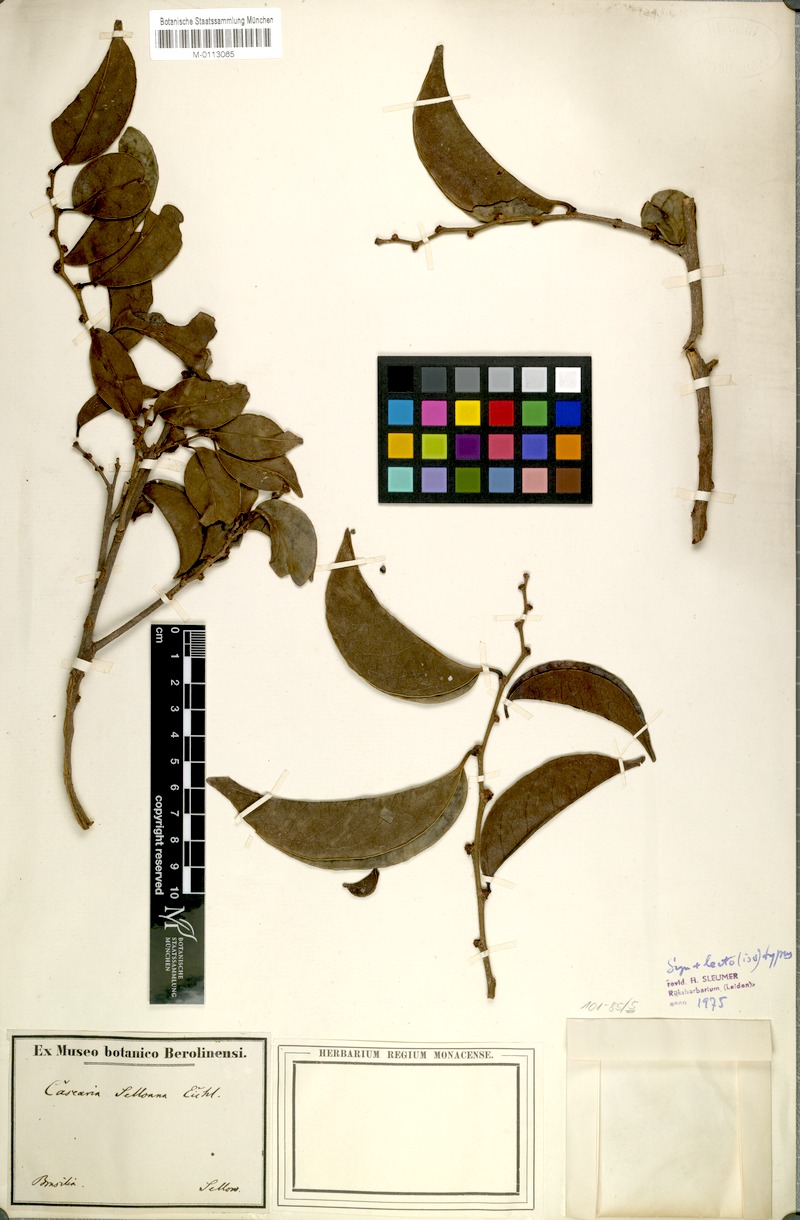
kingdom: Plantae
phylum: Tracheophyta
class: Magnoliopsida
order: Malpighiales
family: Salicaceae
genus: Casearia
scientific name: Casearia selloana
